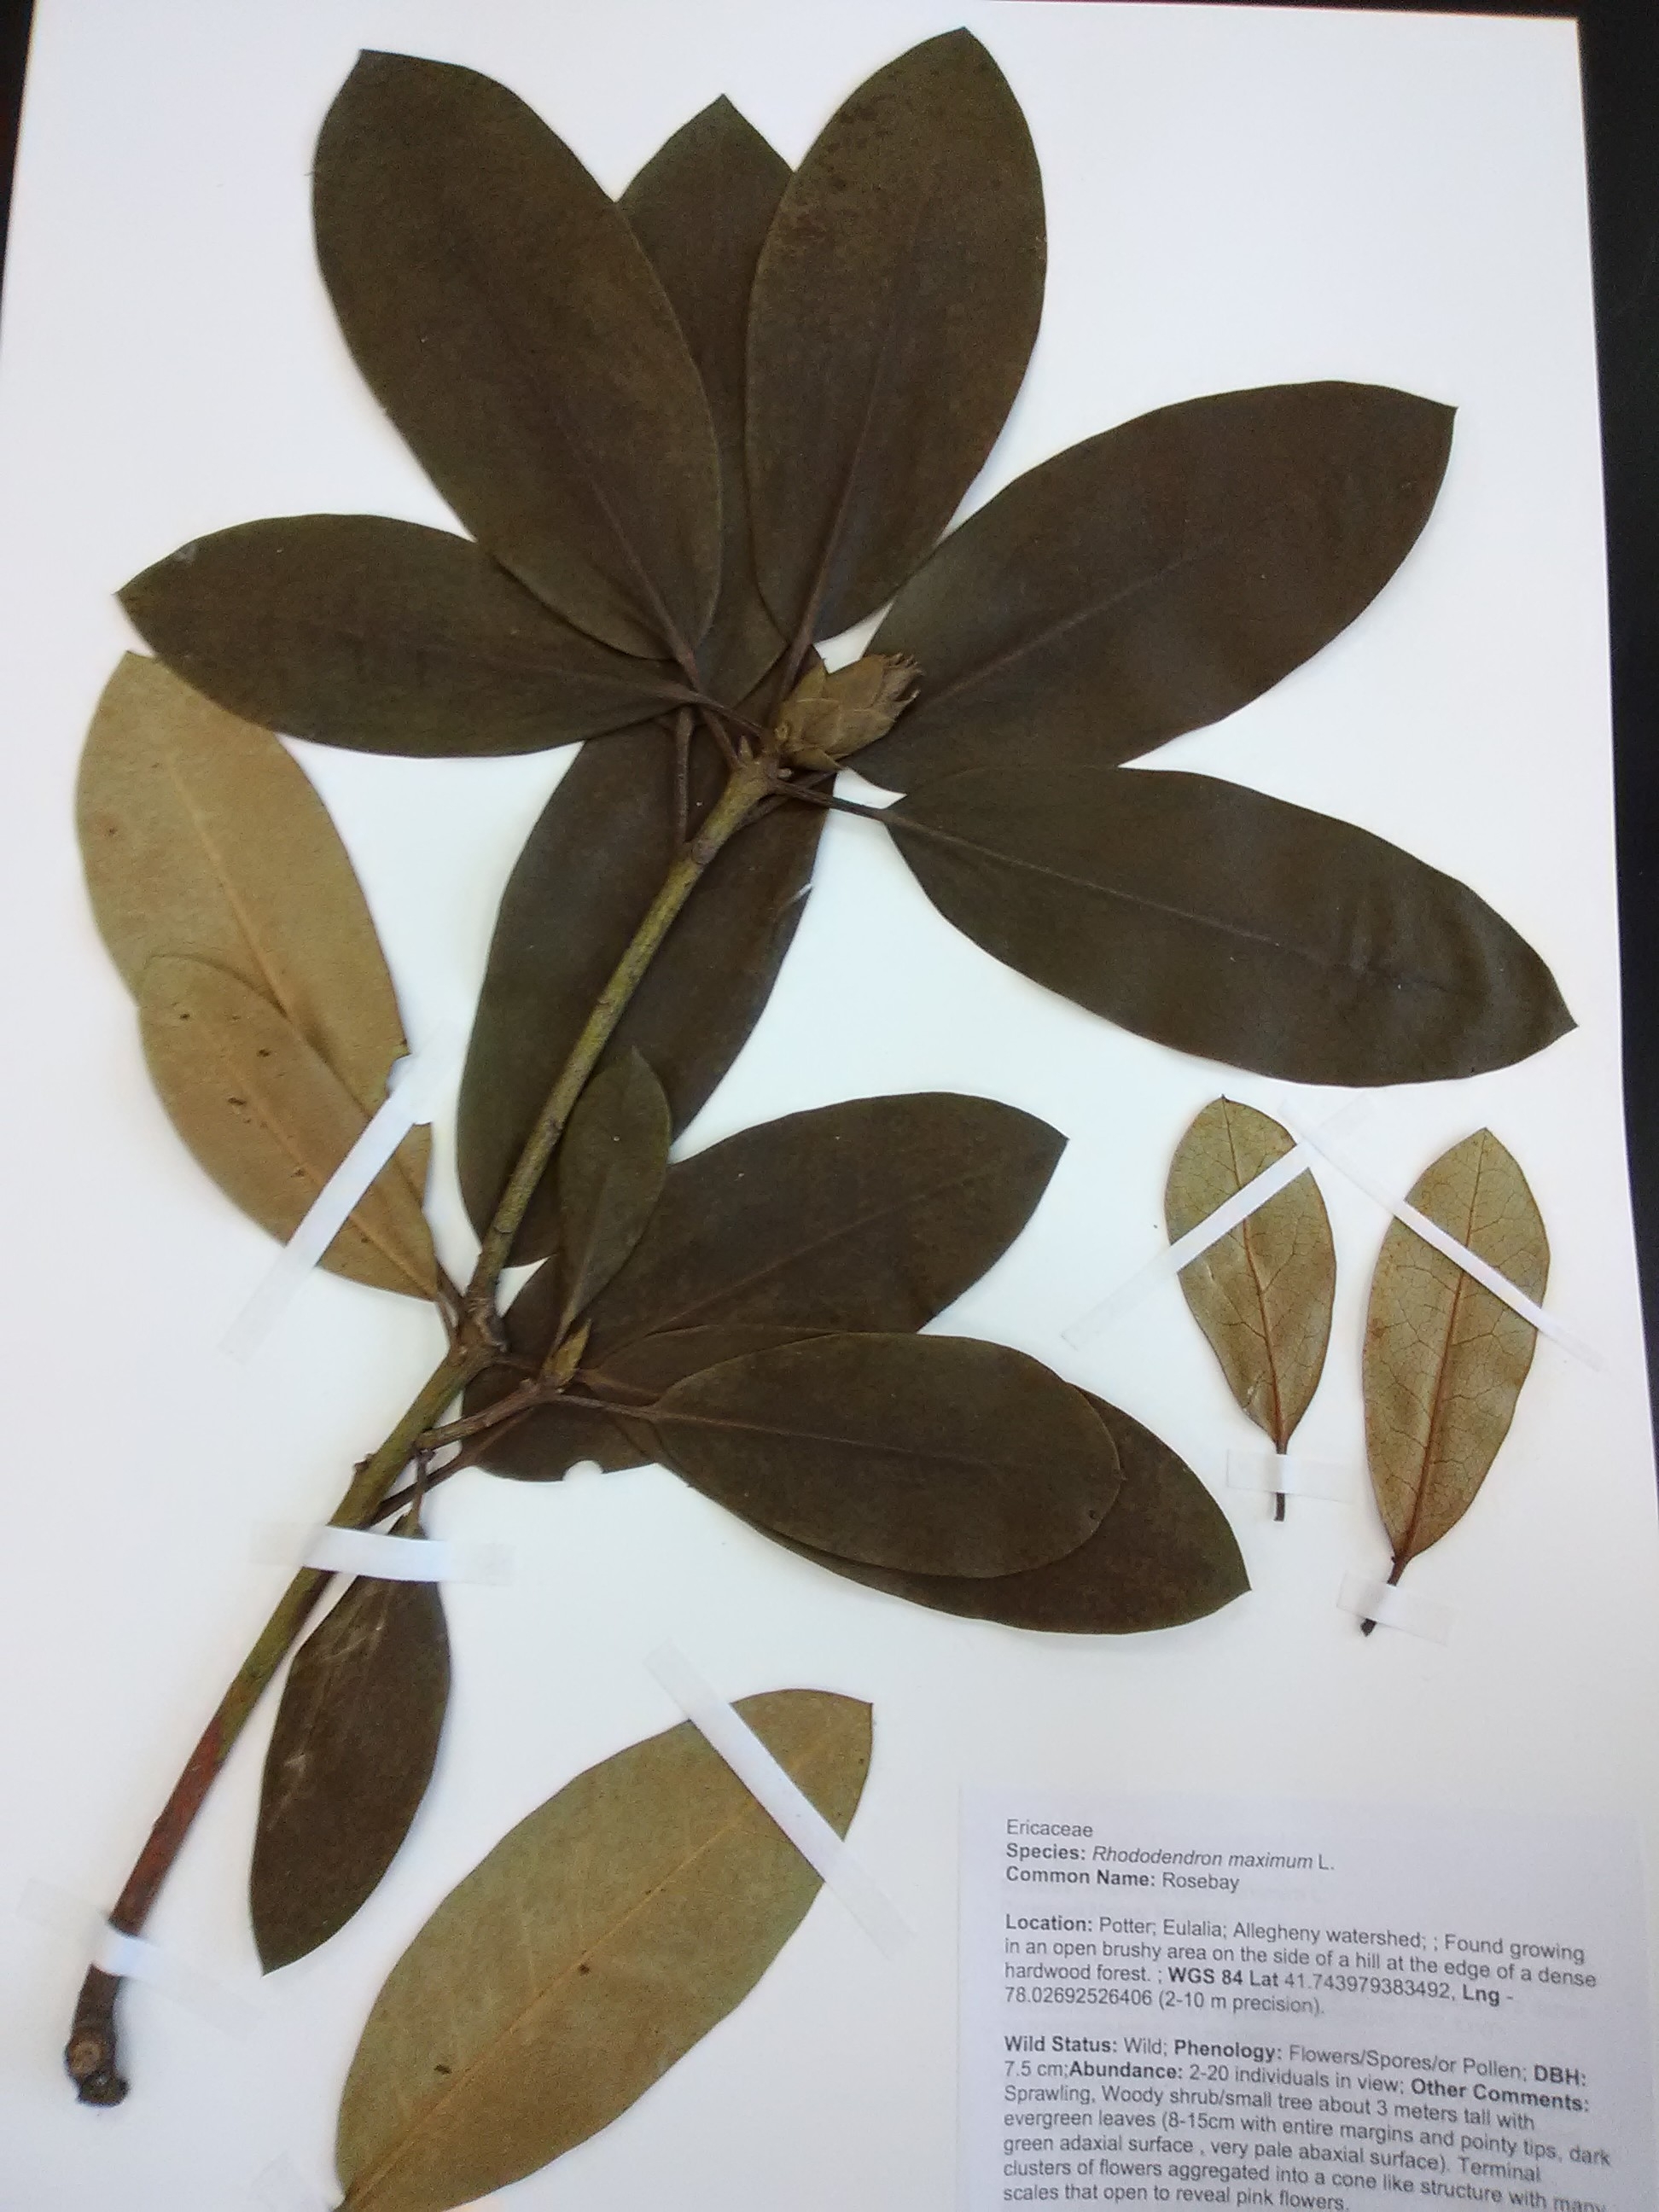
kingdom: Plantae
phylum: Tracheophyta
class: Magnoliopsida
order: Ericales
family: Ericaceae
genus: Rhododendron
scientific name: Rhododendron maximum
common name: Rosebay
